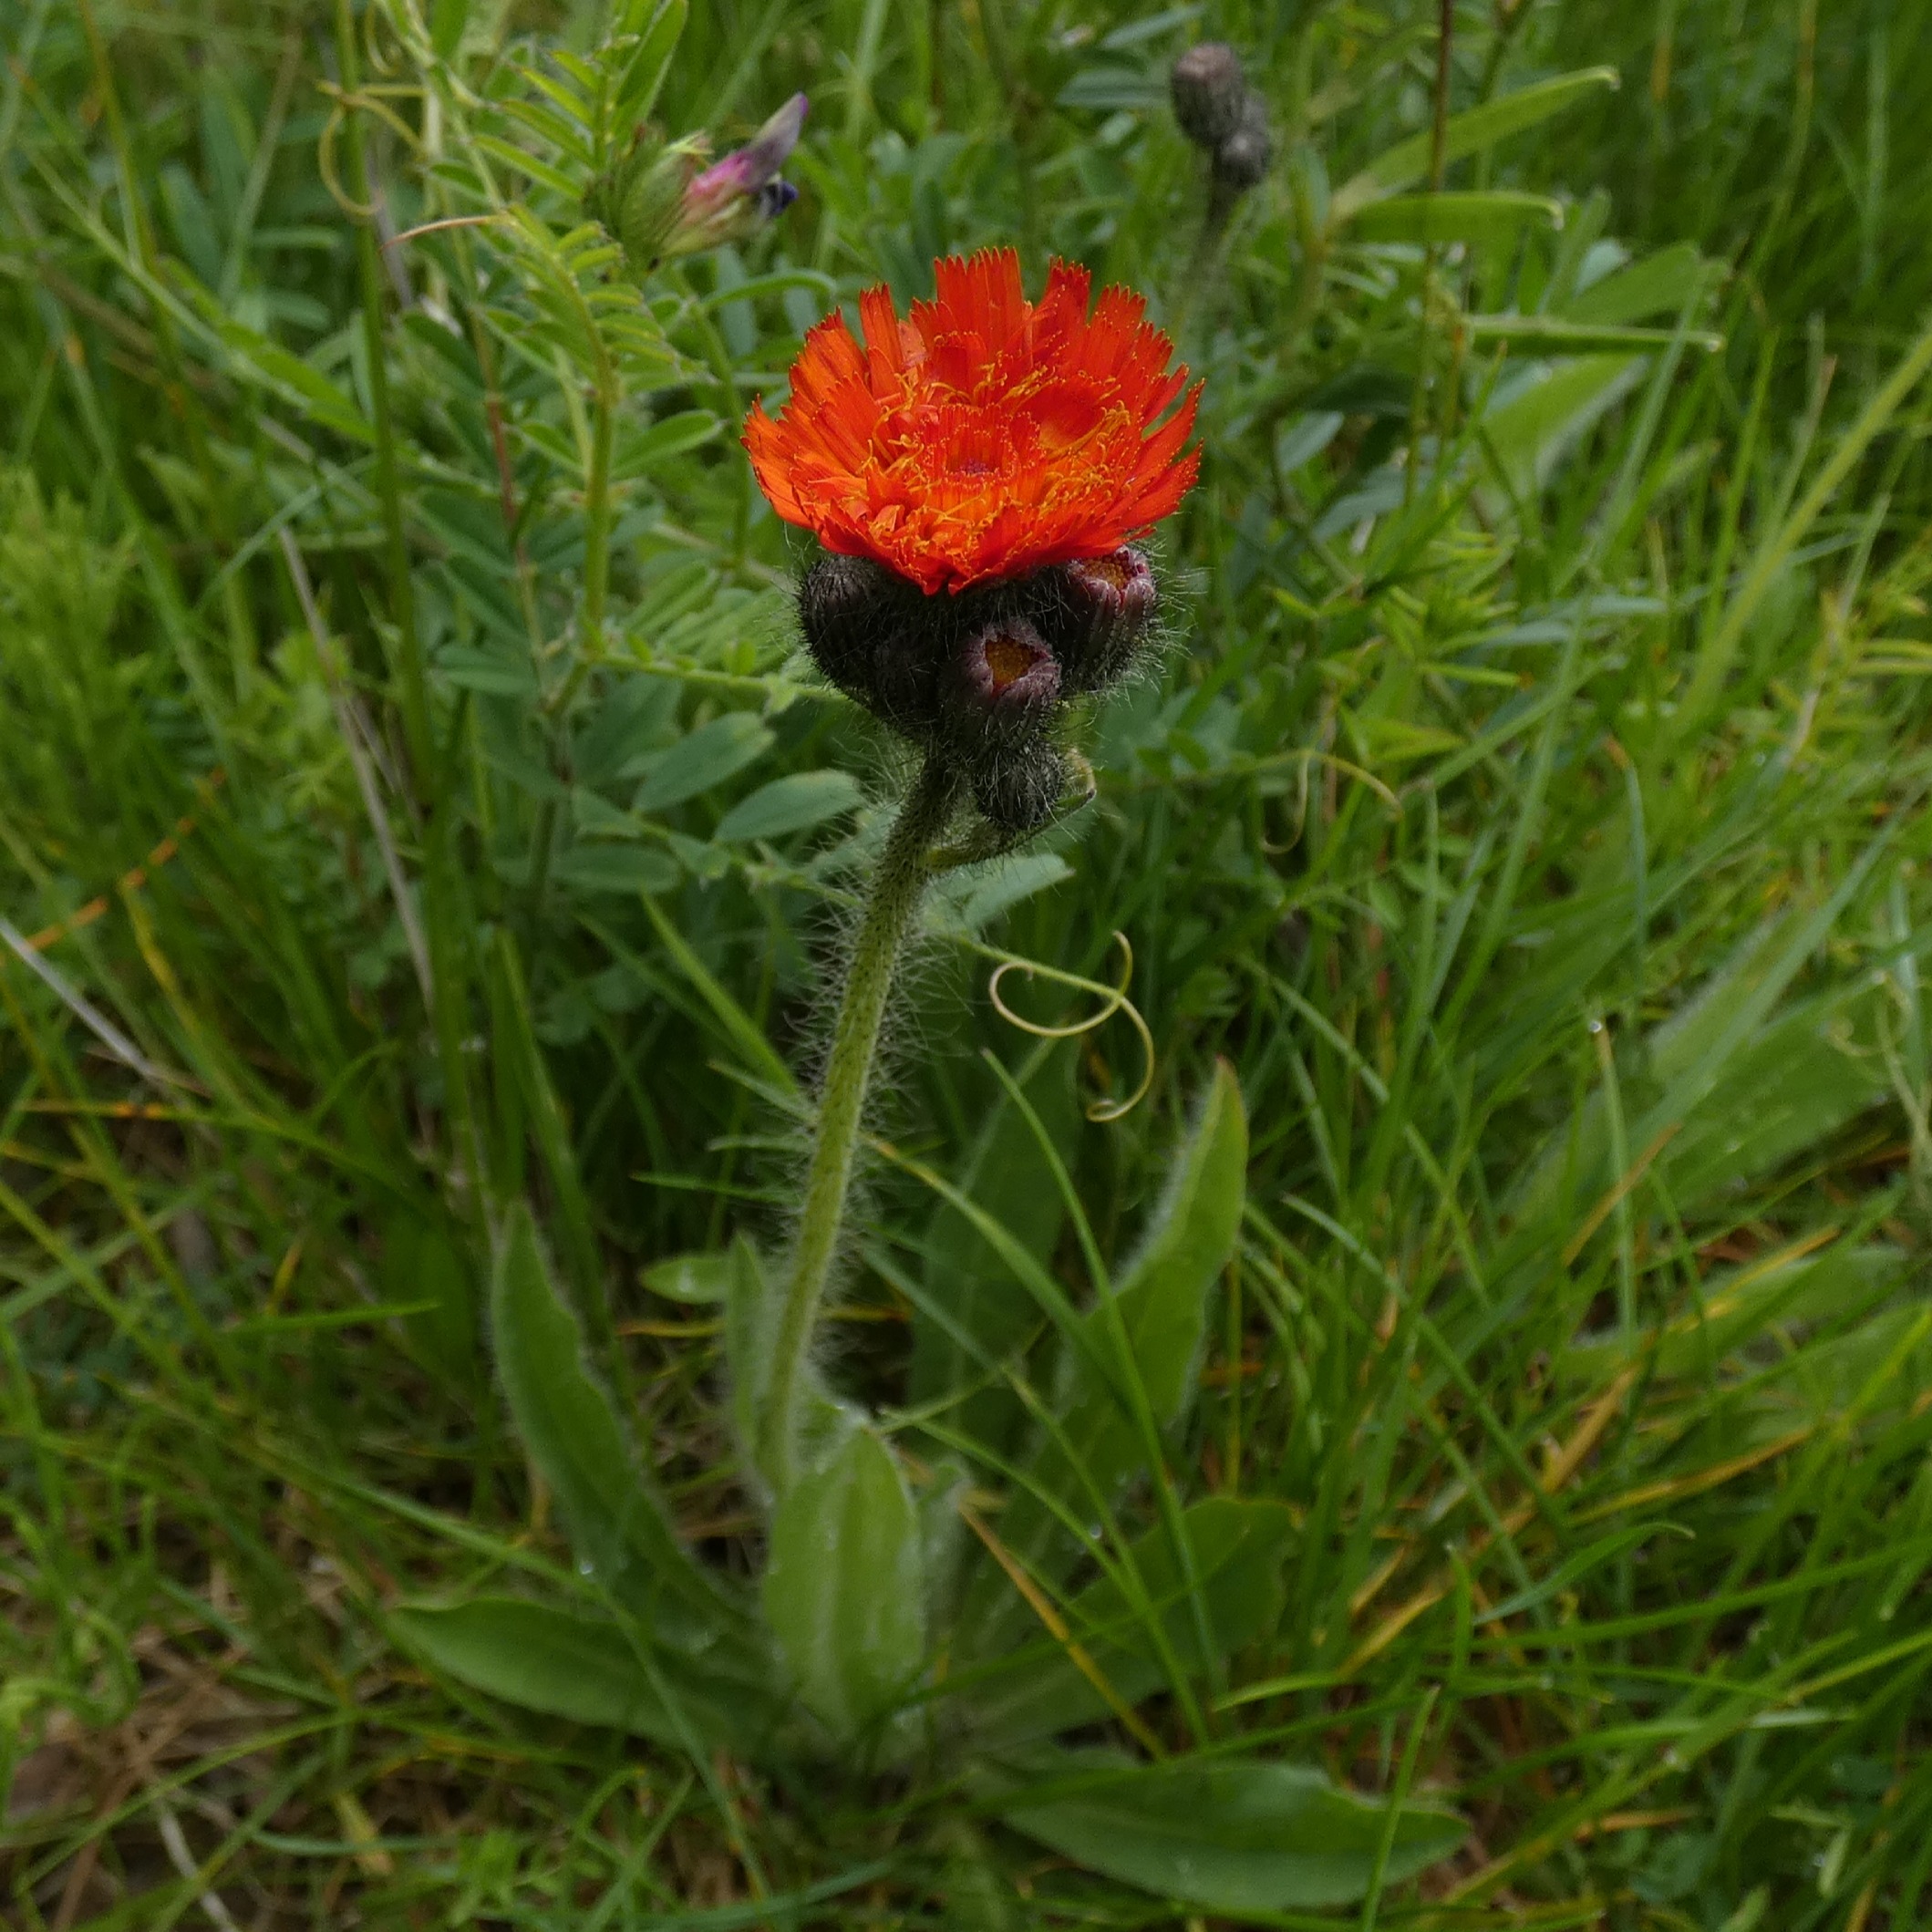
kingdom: Plantae
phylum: Tracheophyta
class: Magnoliopsida
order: Asterales
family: Asteraceae
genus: Pilosella
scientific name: Pilosella aurantiaca
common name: Pomerans-høgeurt
